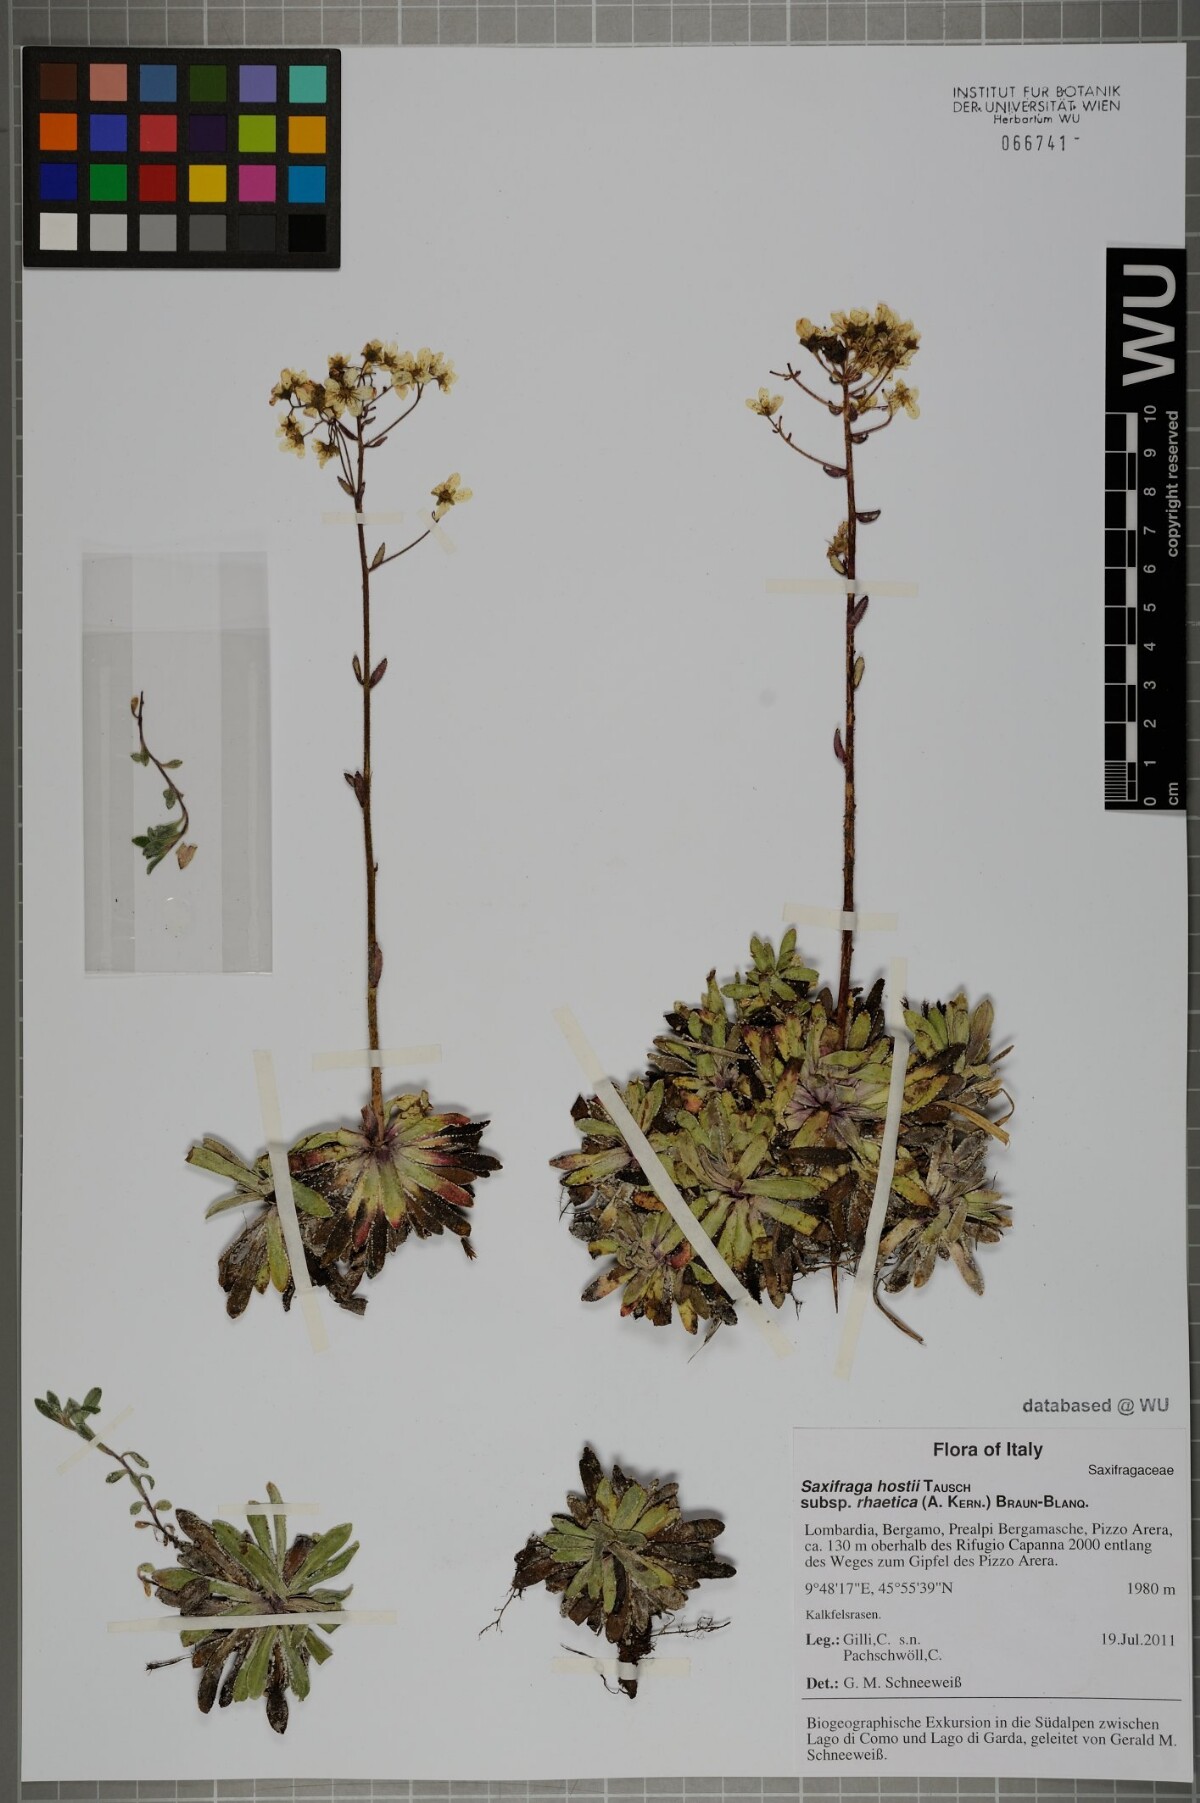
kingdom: Plantae
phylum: Tracheophyta
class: Magnoliopsida
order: Saxifragales
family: Saxifragaceae
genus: Saxifraga
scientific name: Saxifraga hostii
